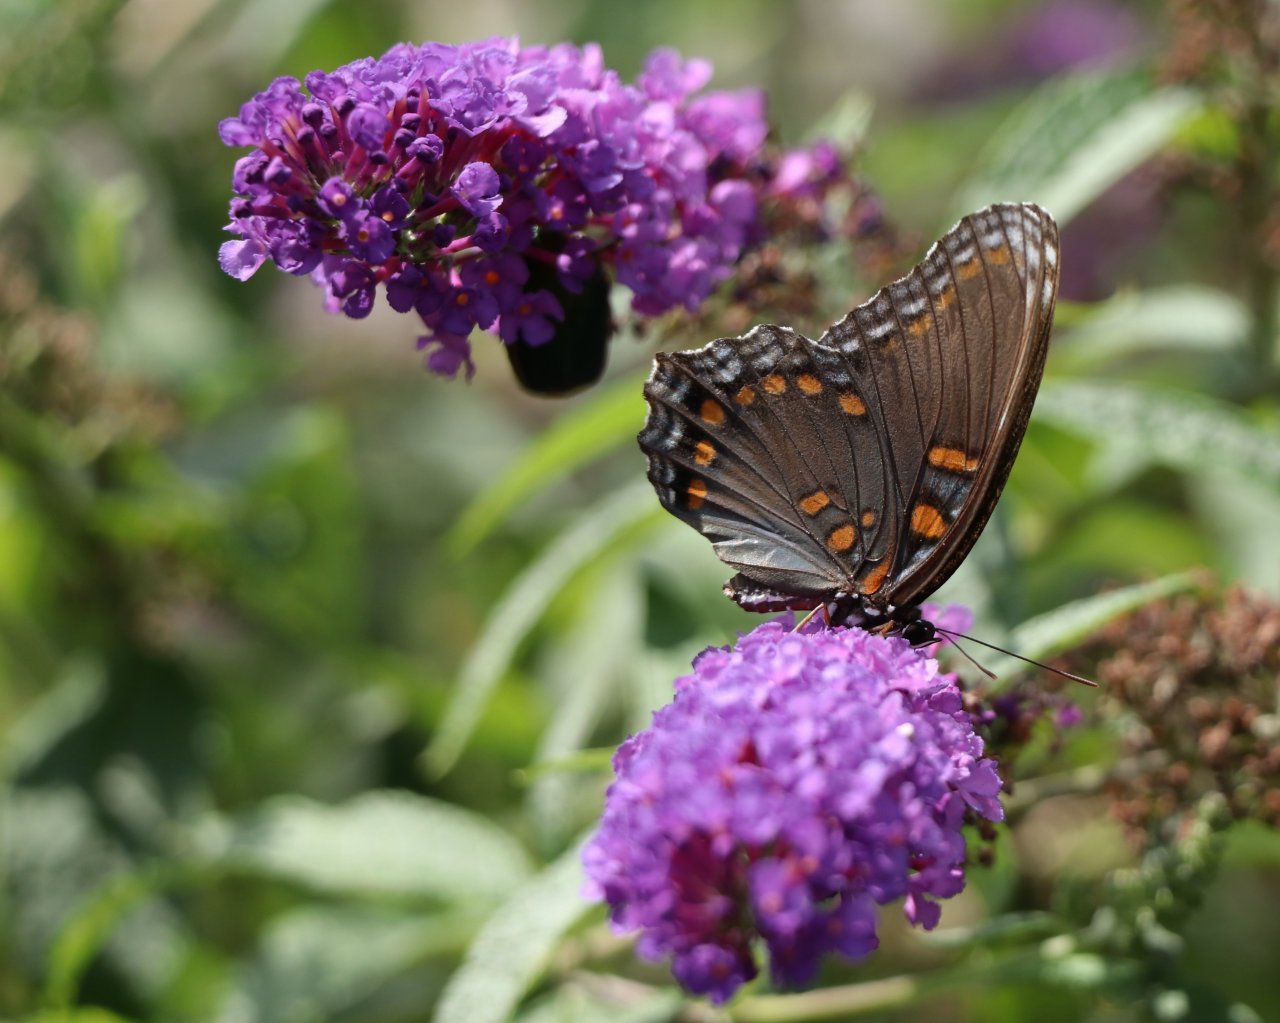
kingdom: Animalia
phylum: Arthropoda
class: Insecta
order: Lepidoptera
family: Nymphalidae
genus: Limenitis
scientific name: Limenitis astyanax
